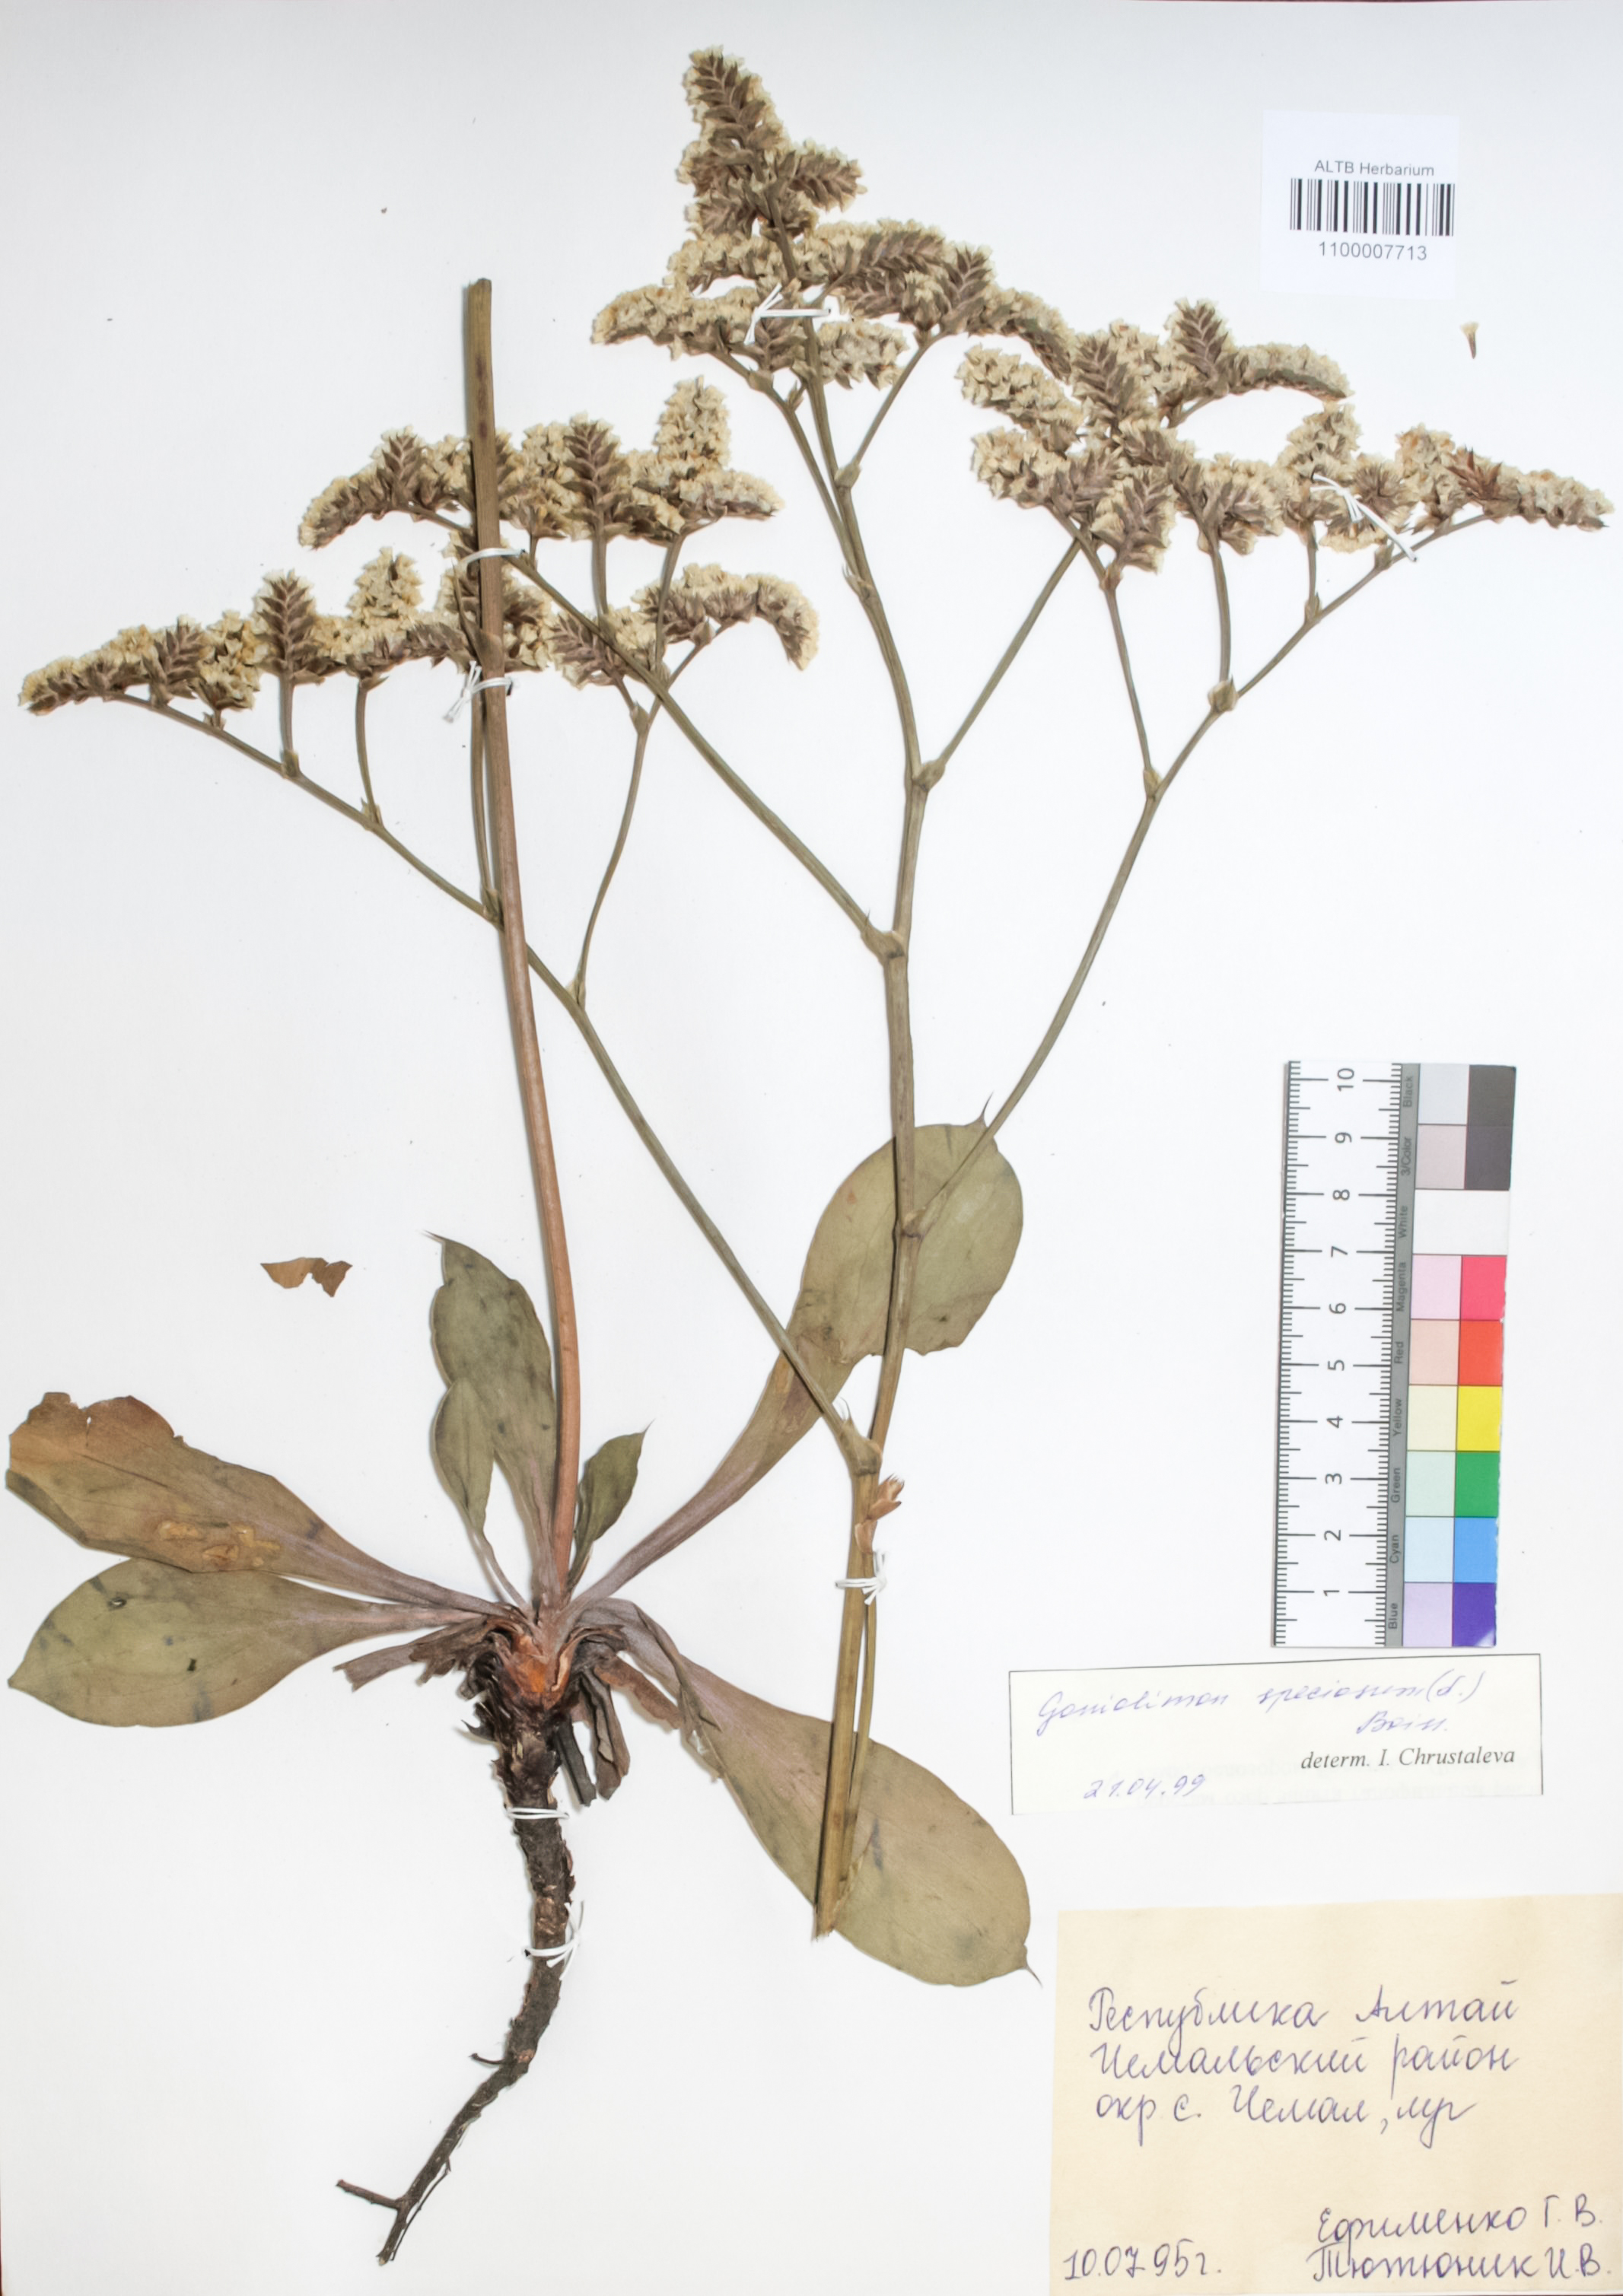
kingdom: Plantae
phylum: Tracheophyta
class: Magnoliopsida
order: Caryophyllales
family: Plumbaginaceae
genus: Goniolimon
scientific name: Goniolimon speciosum
